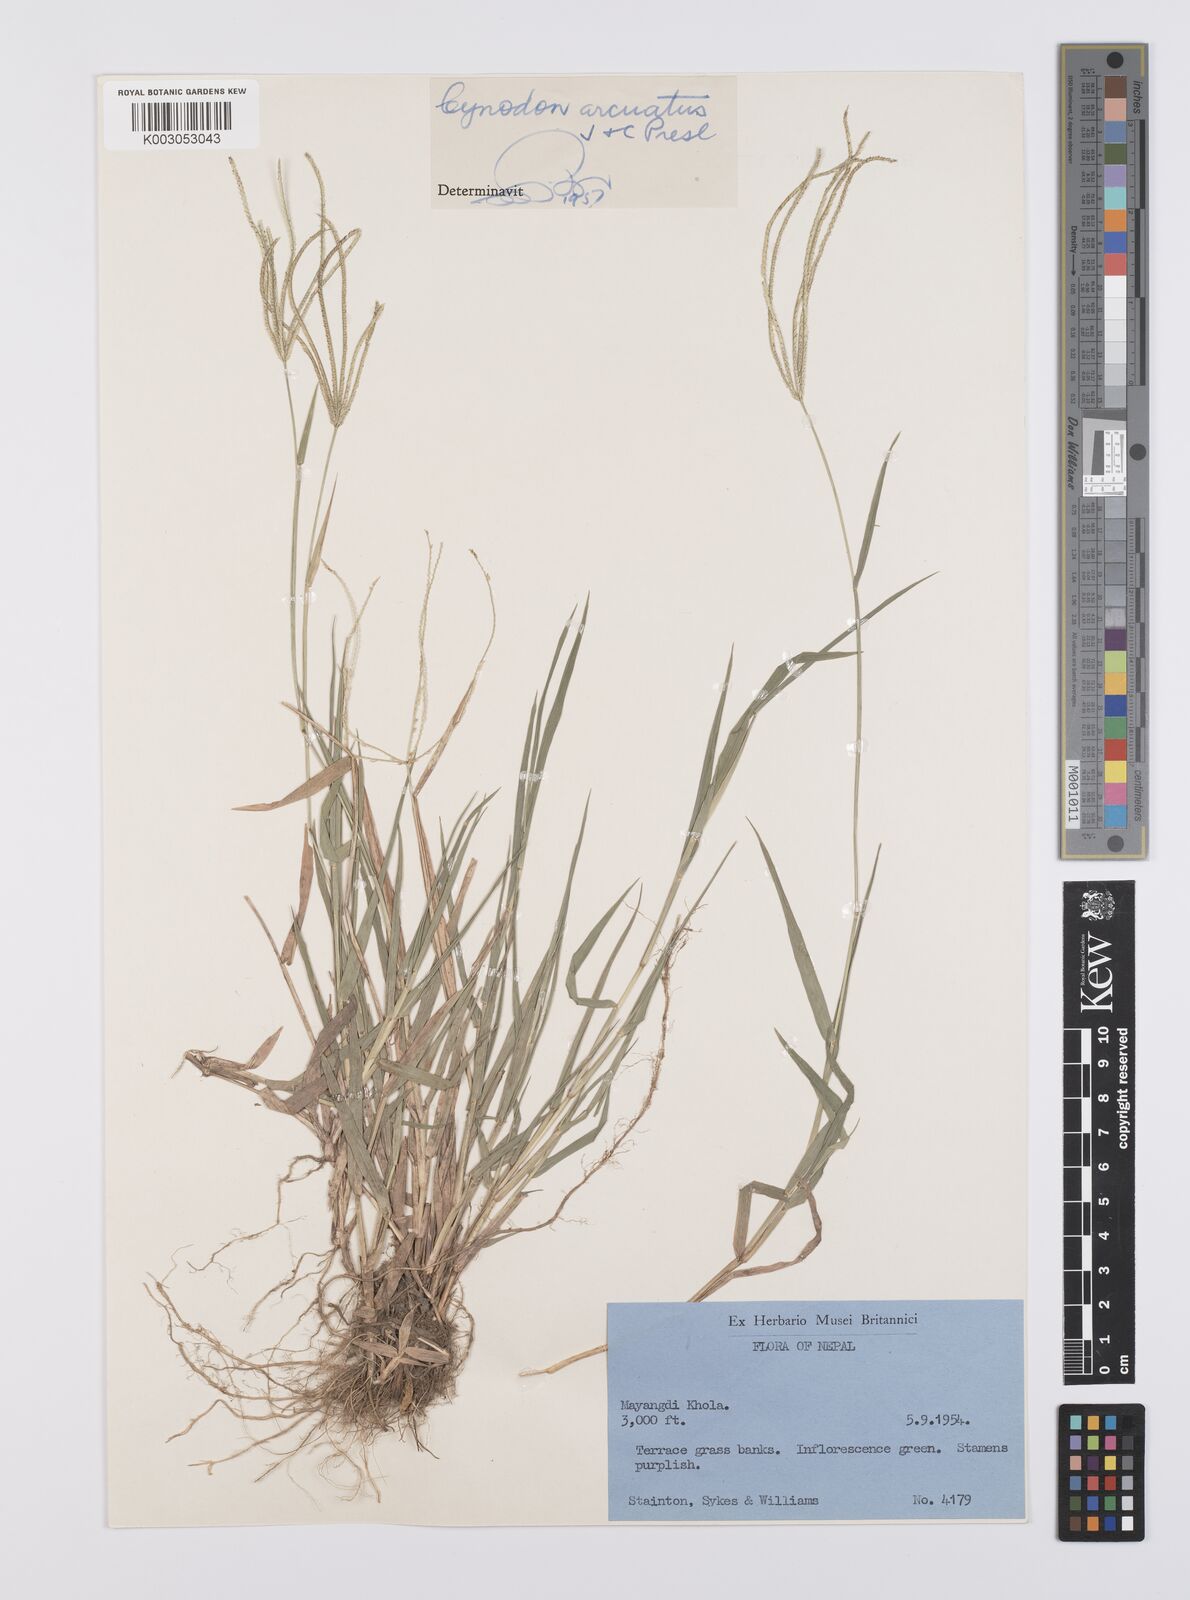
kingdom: Plantae
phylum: Tracheophyta
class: Liliopsida
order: Poales
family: Poaceae
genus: Cynodon
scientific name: Cynodon radiatus
